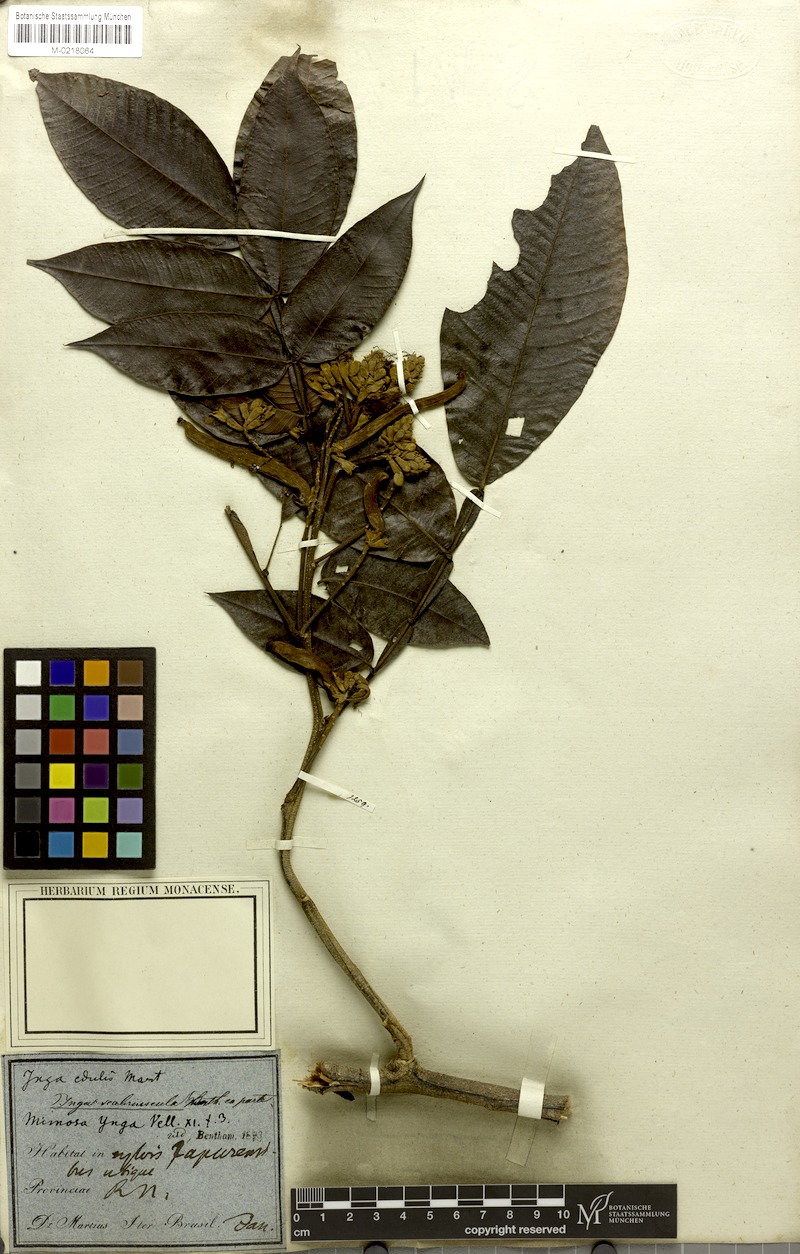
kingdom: Plantae
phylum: Tracheophyta
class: Magnoliopsida
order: Fabales
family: Fabaceae
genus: Inga
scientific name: Inga edulis
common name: Ice cream bean
